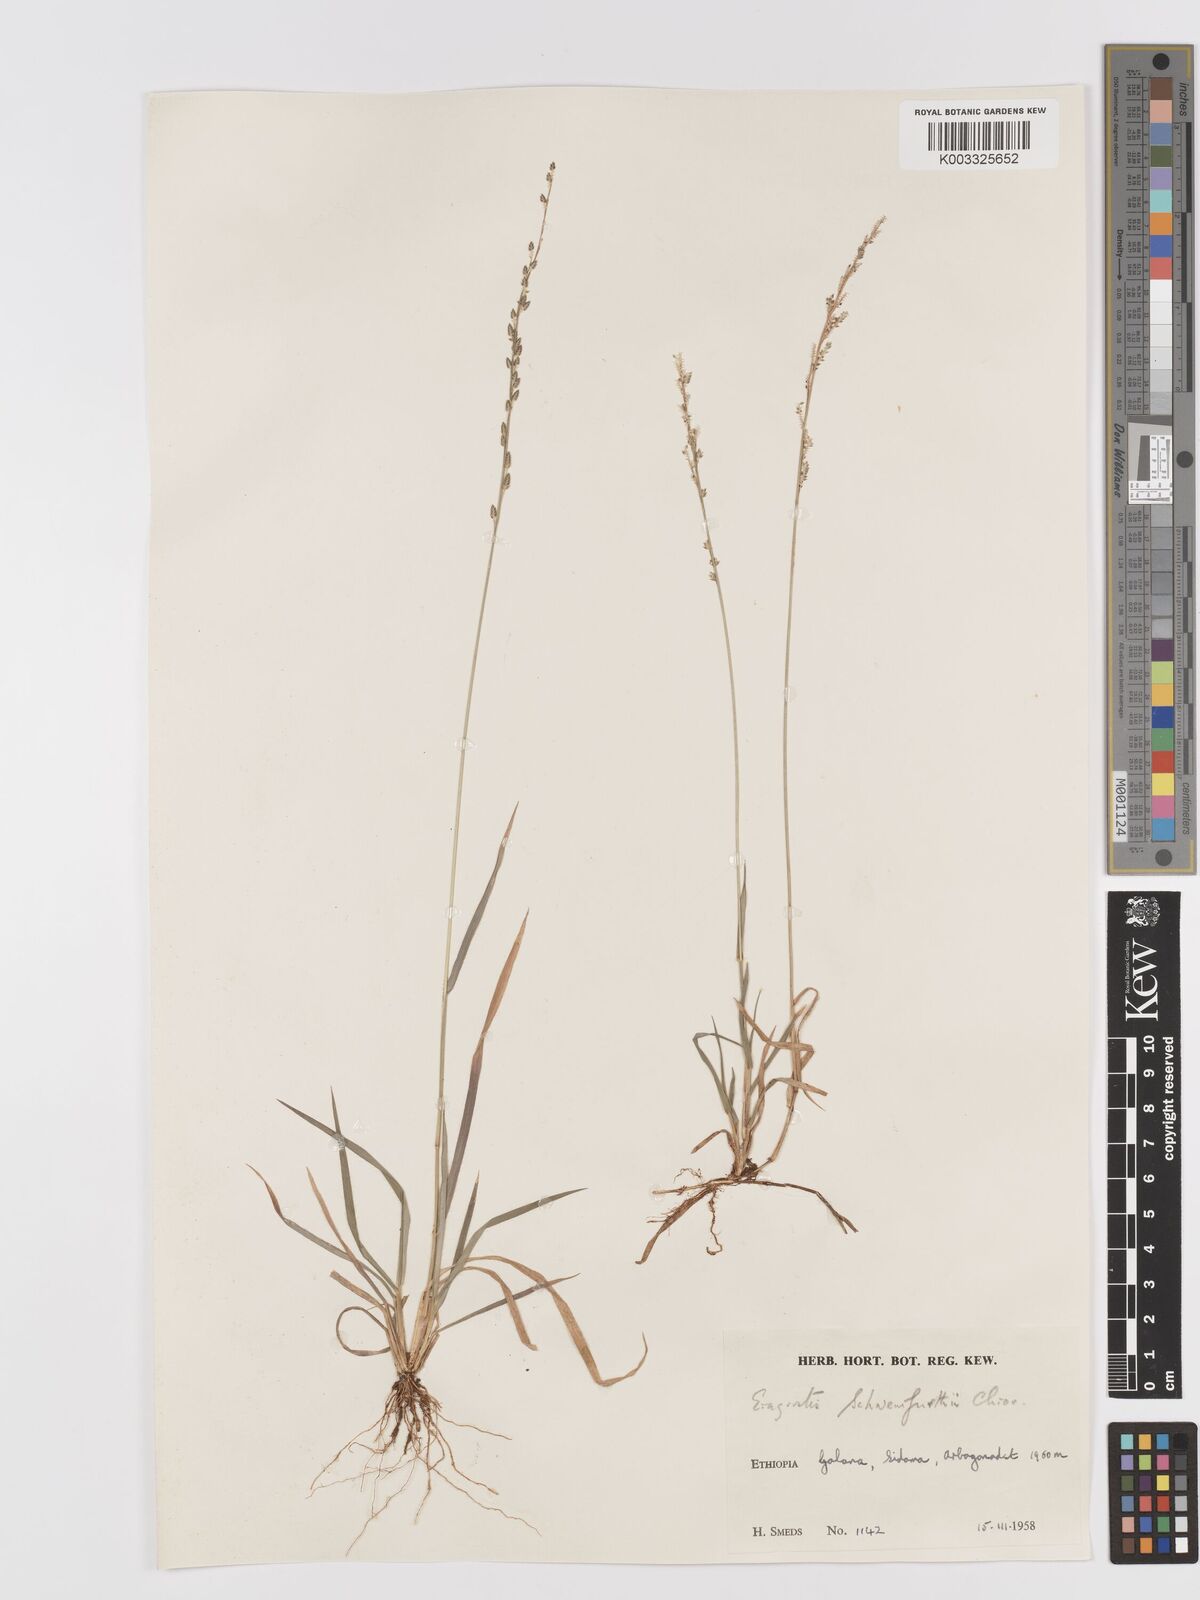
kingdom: Plantae
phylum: Tracheophyta
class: Liliopsida
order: Poales
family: Poaceae
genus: Eragrostis
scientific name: Eragrostis schweinfurthii
